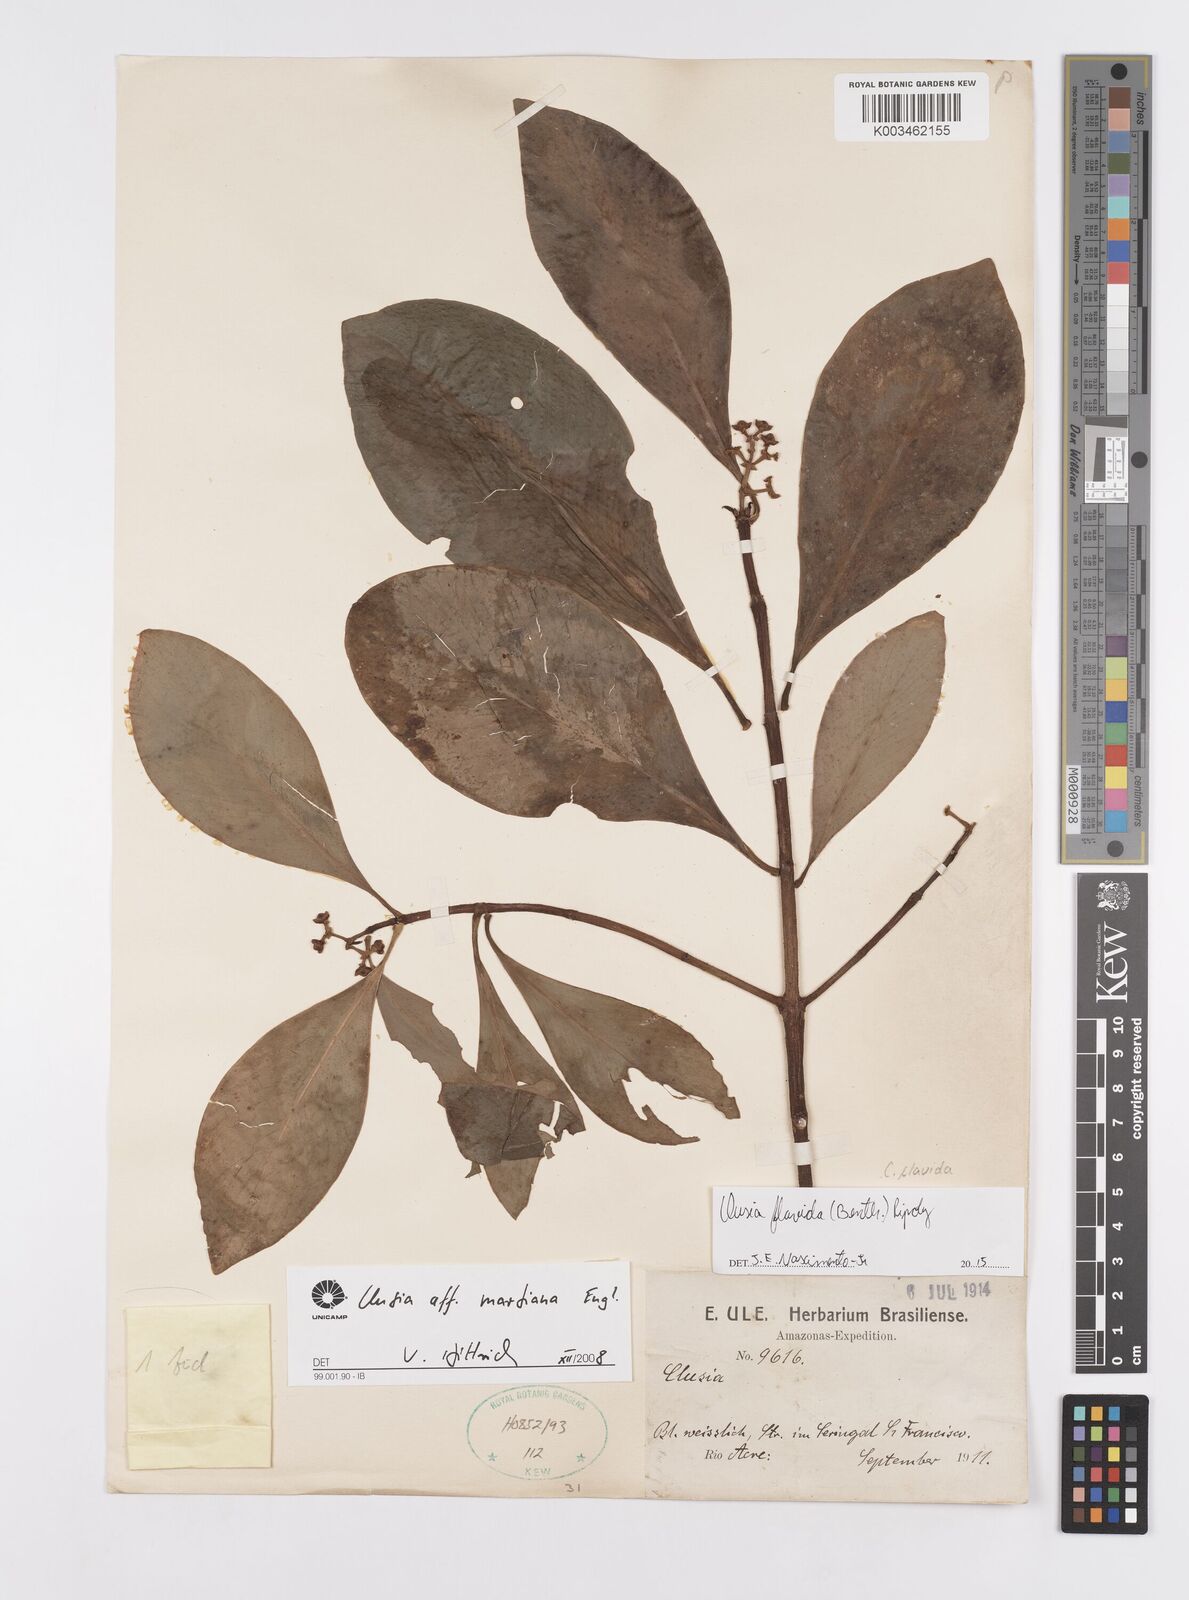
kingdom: Plantae
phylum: Tracheophyta
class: Magnoliopsida
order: Malpighiales
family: Clusiaceae
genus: Clusia
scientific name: Clusia flavida
